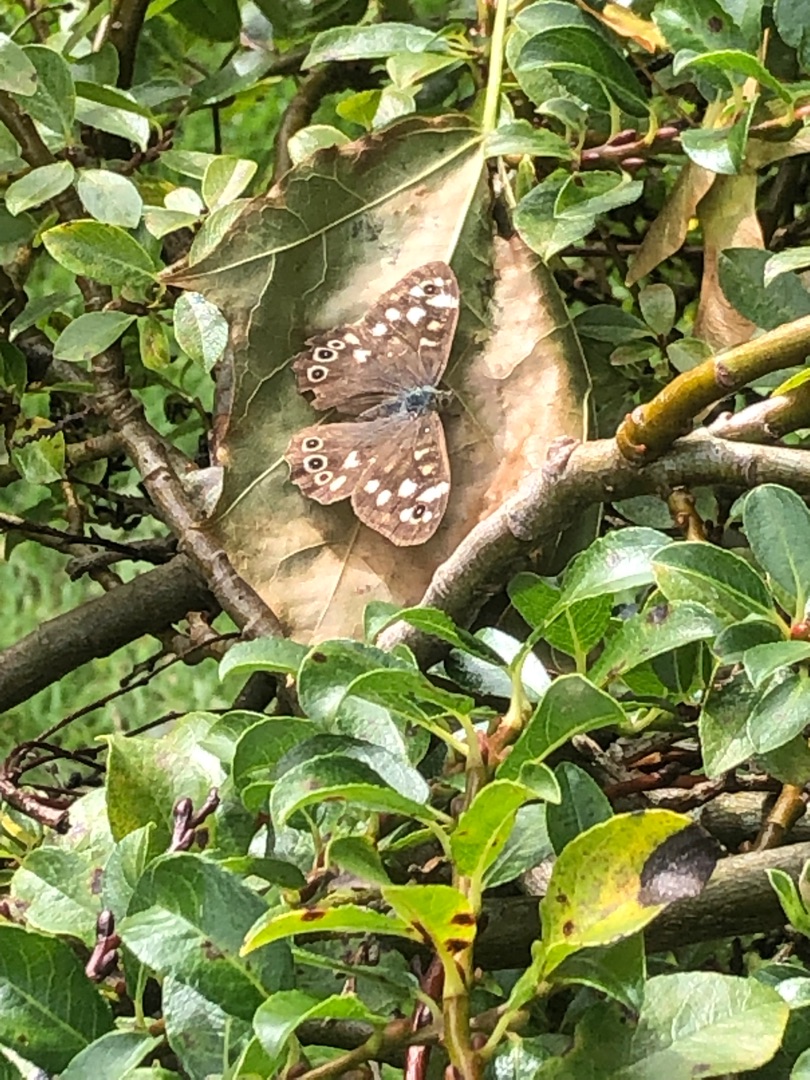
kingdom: Animalia
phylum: Arthropoda
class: Insecta
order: Lepidoptera
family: Nymphalidae
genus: Pararge
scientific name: Pararge aegeria
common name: Skovrandøje
